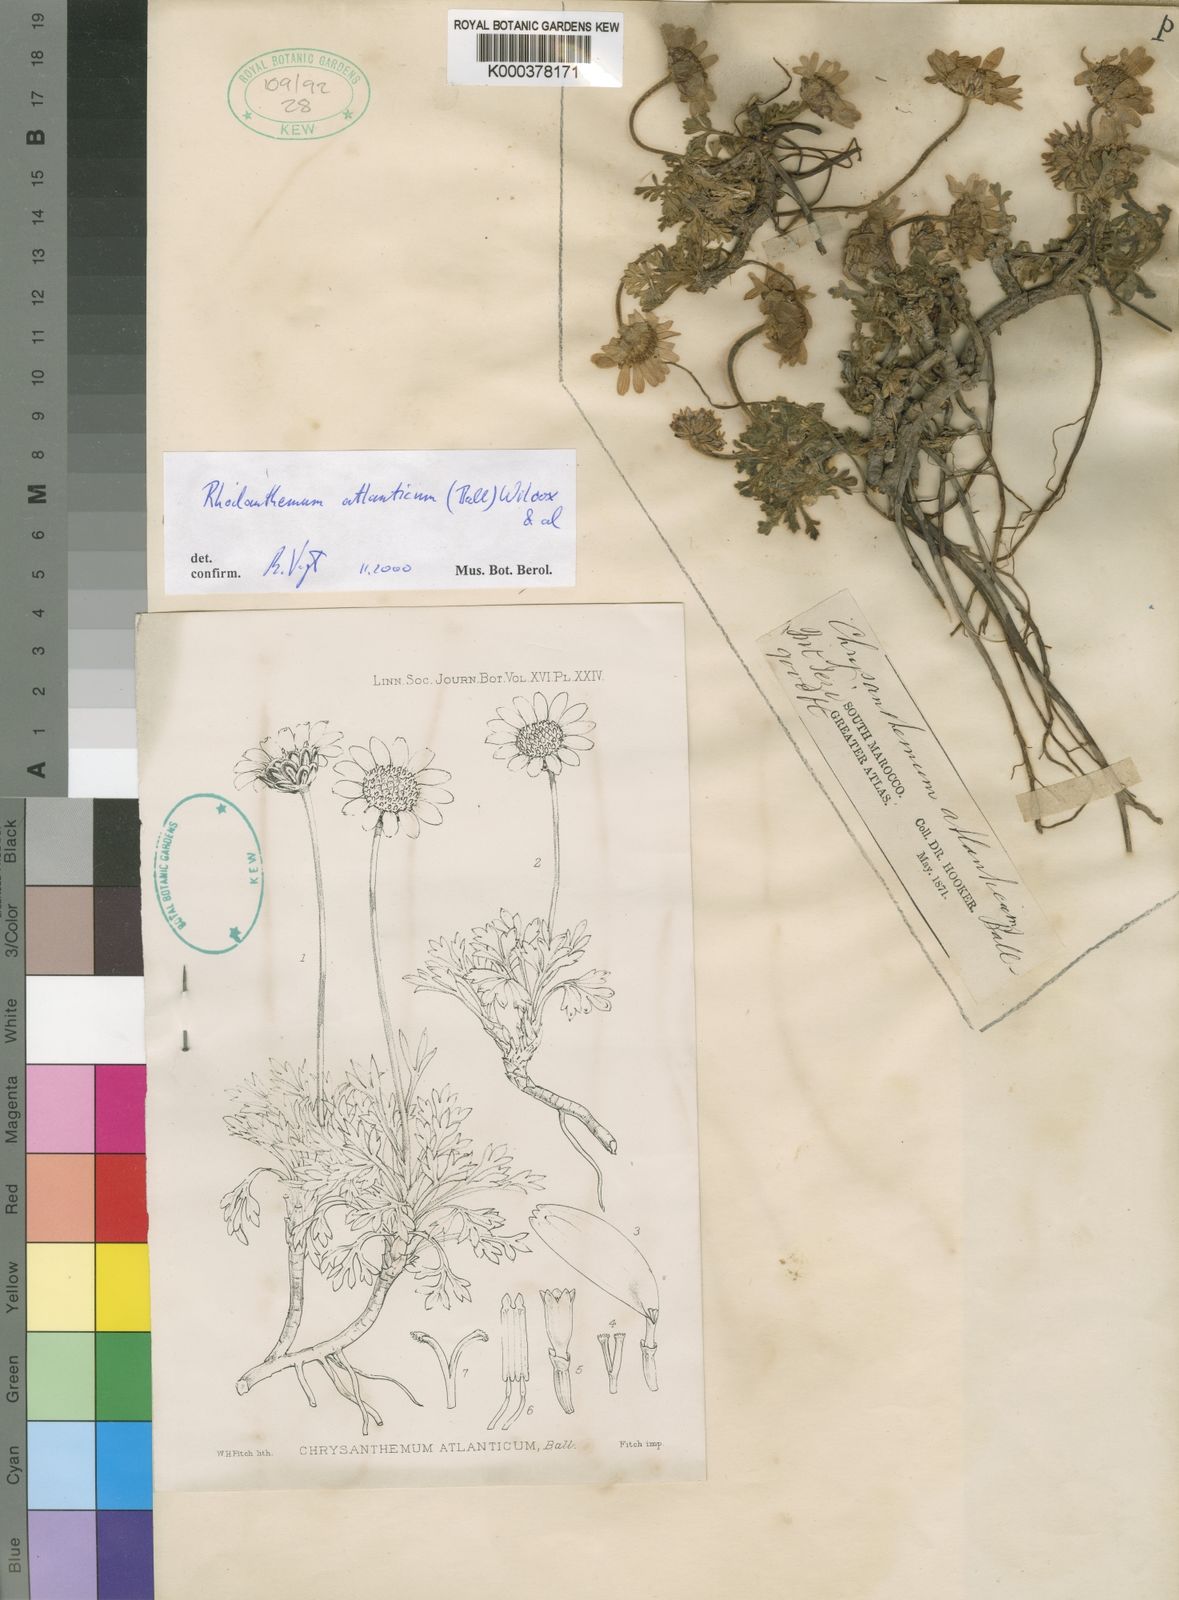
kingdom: Plantae
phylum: Tracheophyta
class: Magnoliopsida
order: Asterales
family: Asteraceae
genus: Rhodanthemum
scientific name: Rhodanthemum
